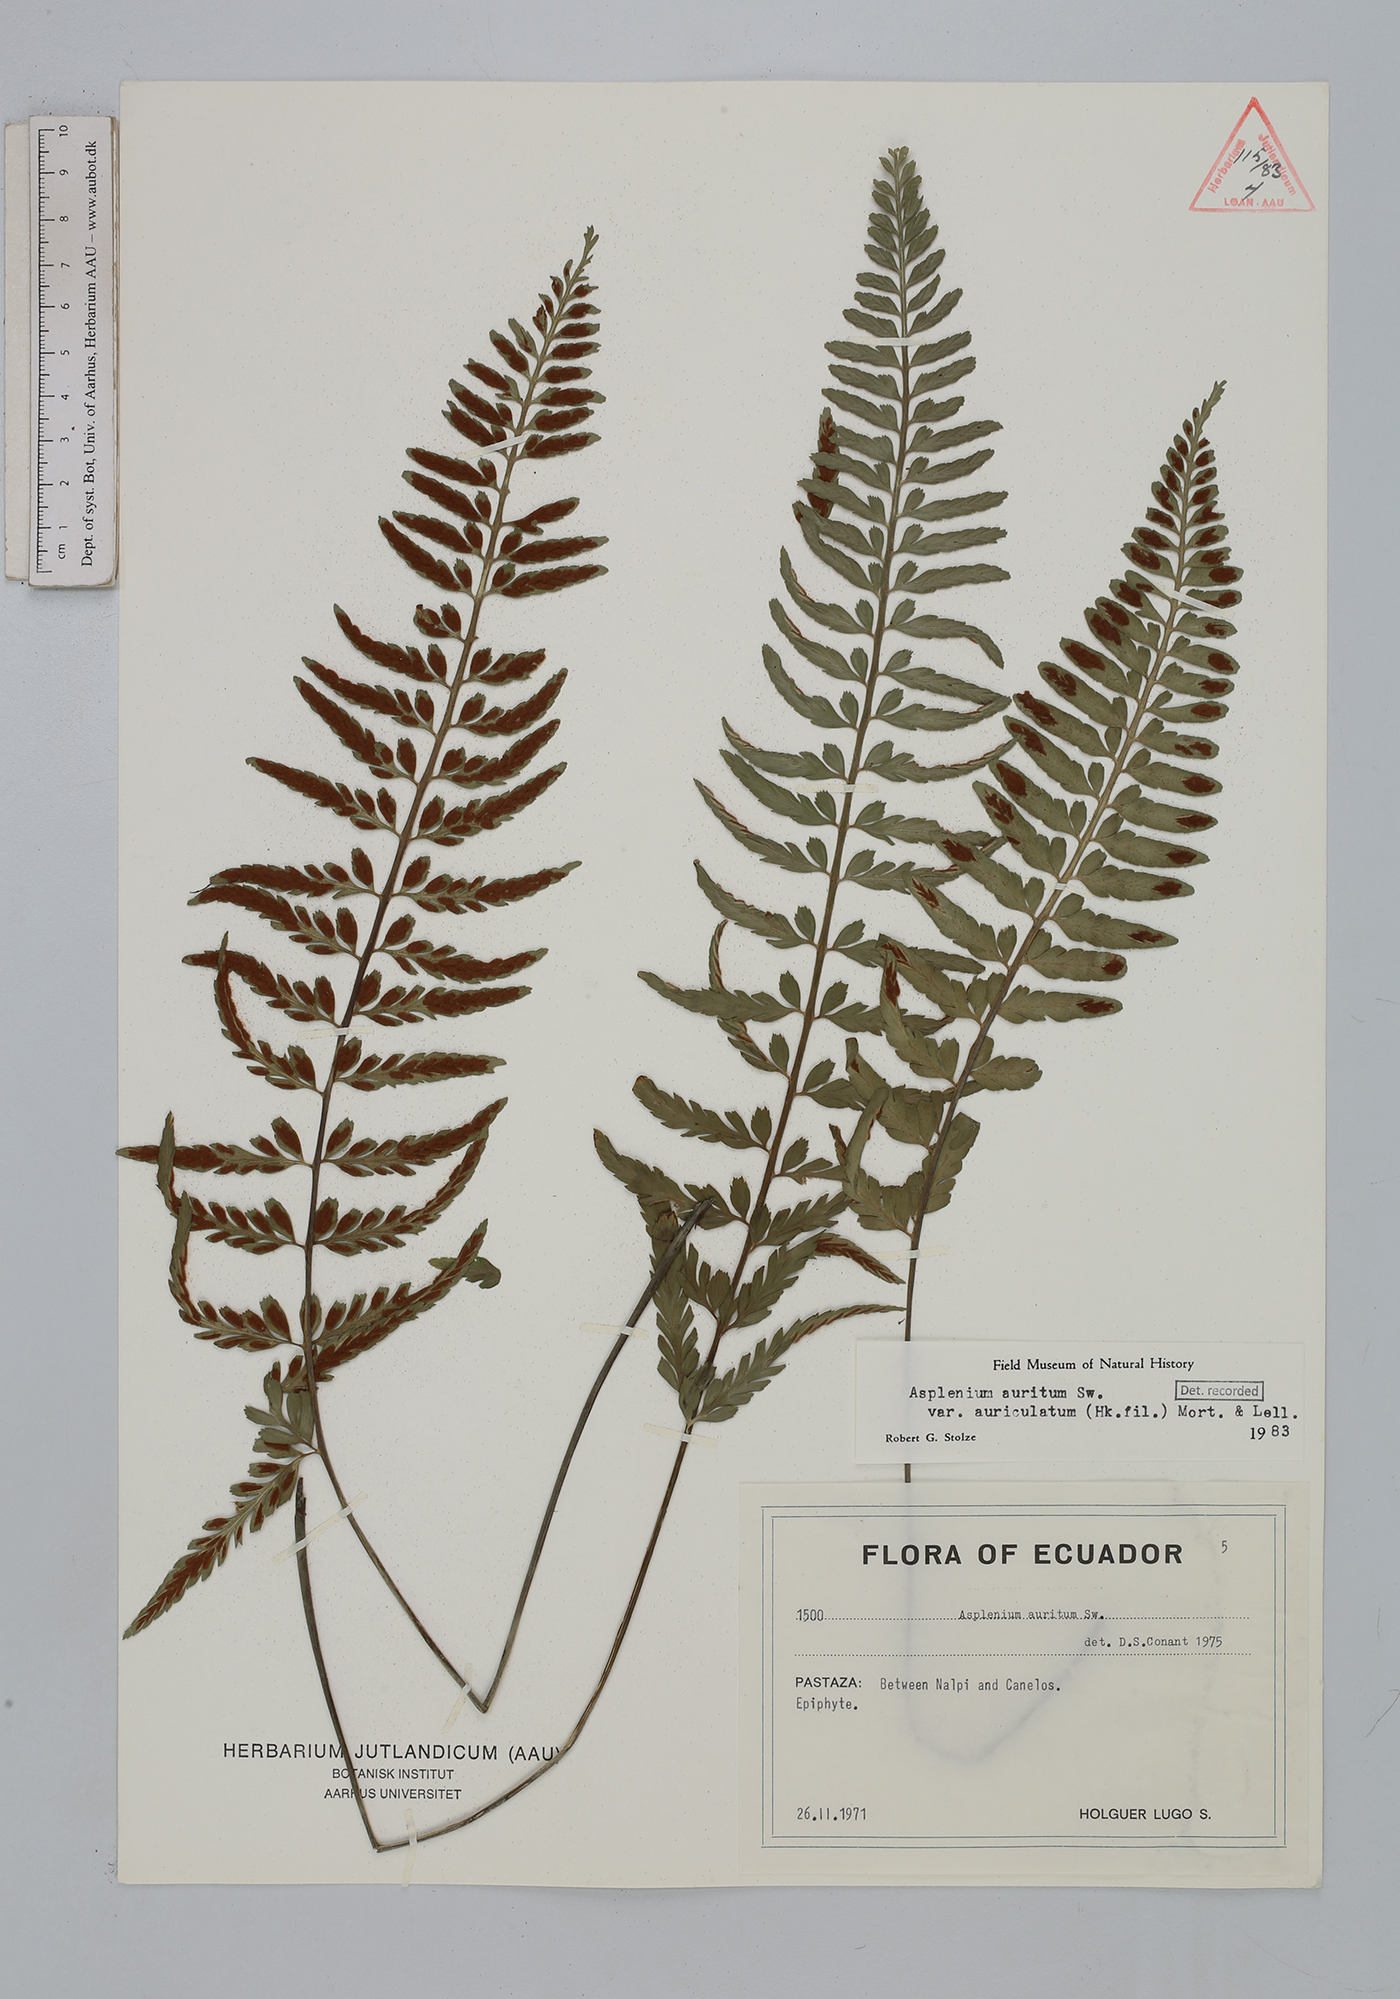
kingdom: Plantae
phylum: Tracheophyta
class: Polypodiopsida
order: Polypodiales
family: Aspleniaceae
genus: Asplenium
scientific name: Asplenium auritum
